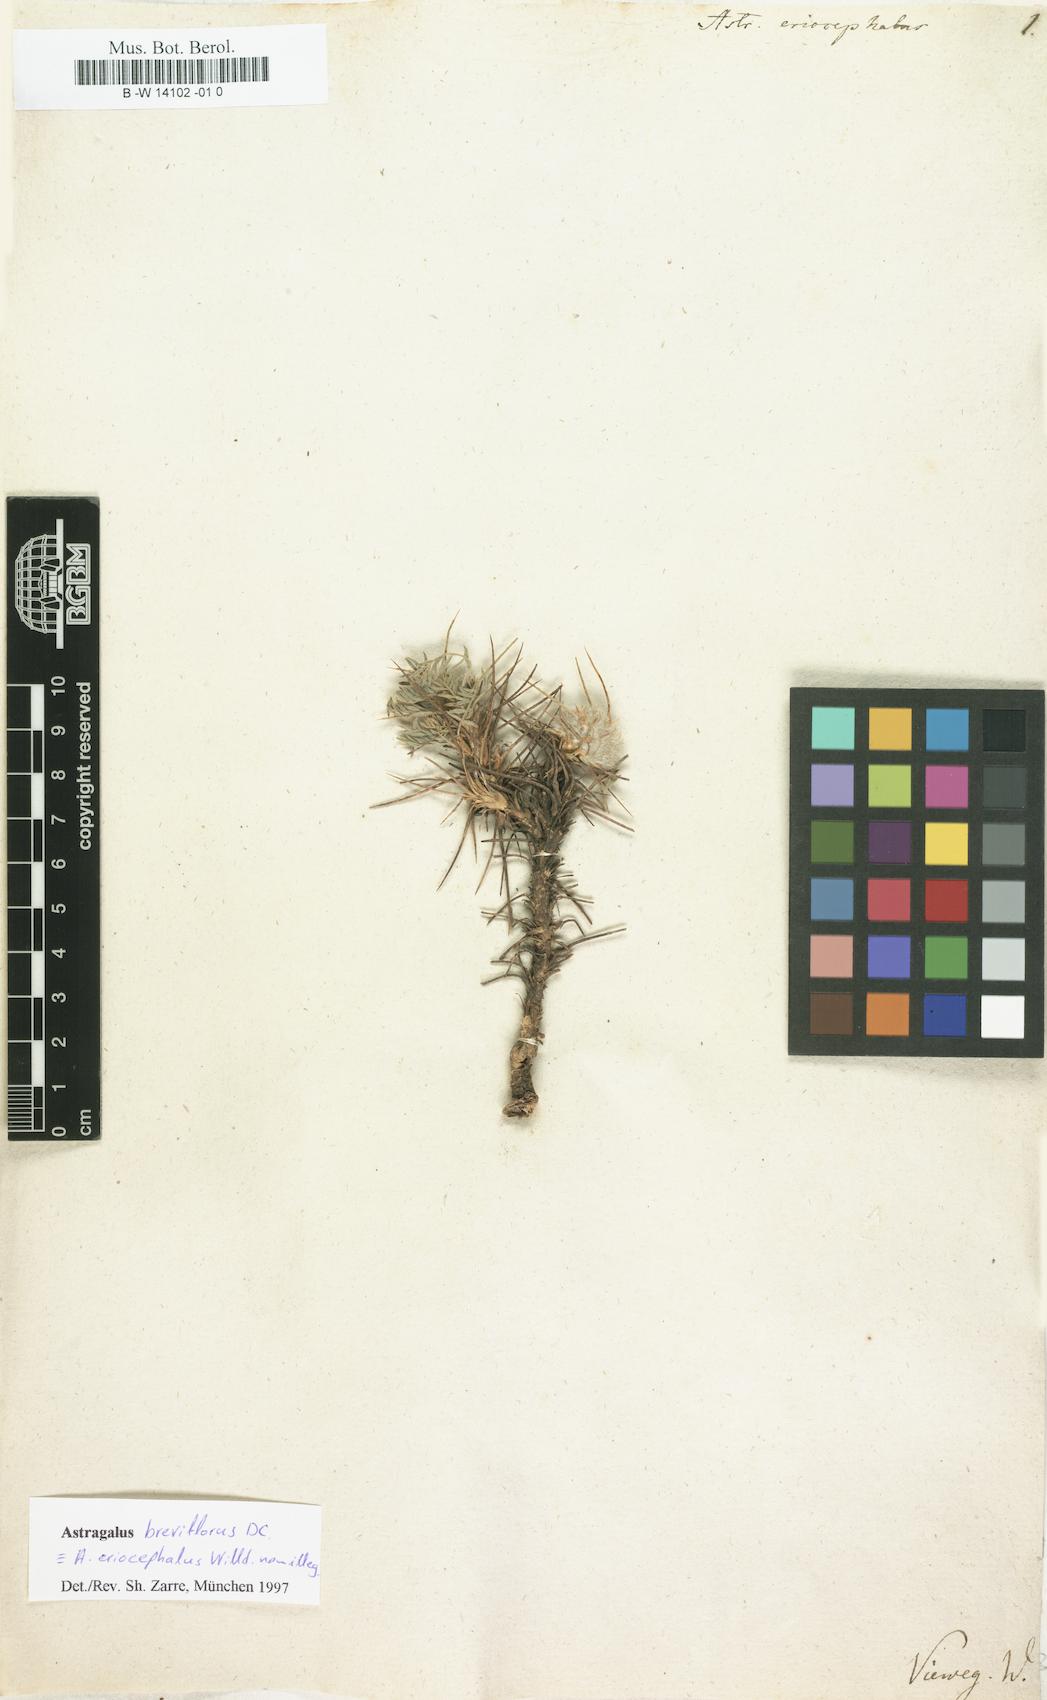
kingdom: Plantae
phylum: Tracheophyta
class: Magnoliopsida
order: Fabales
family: Fabaceae
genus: Astragalus
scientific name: Astragalus breviflorus
